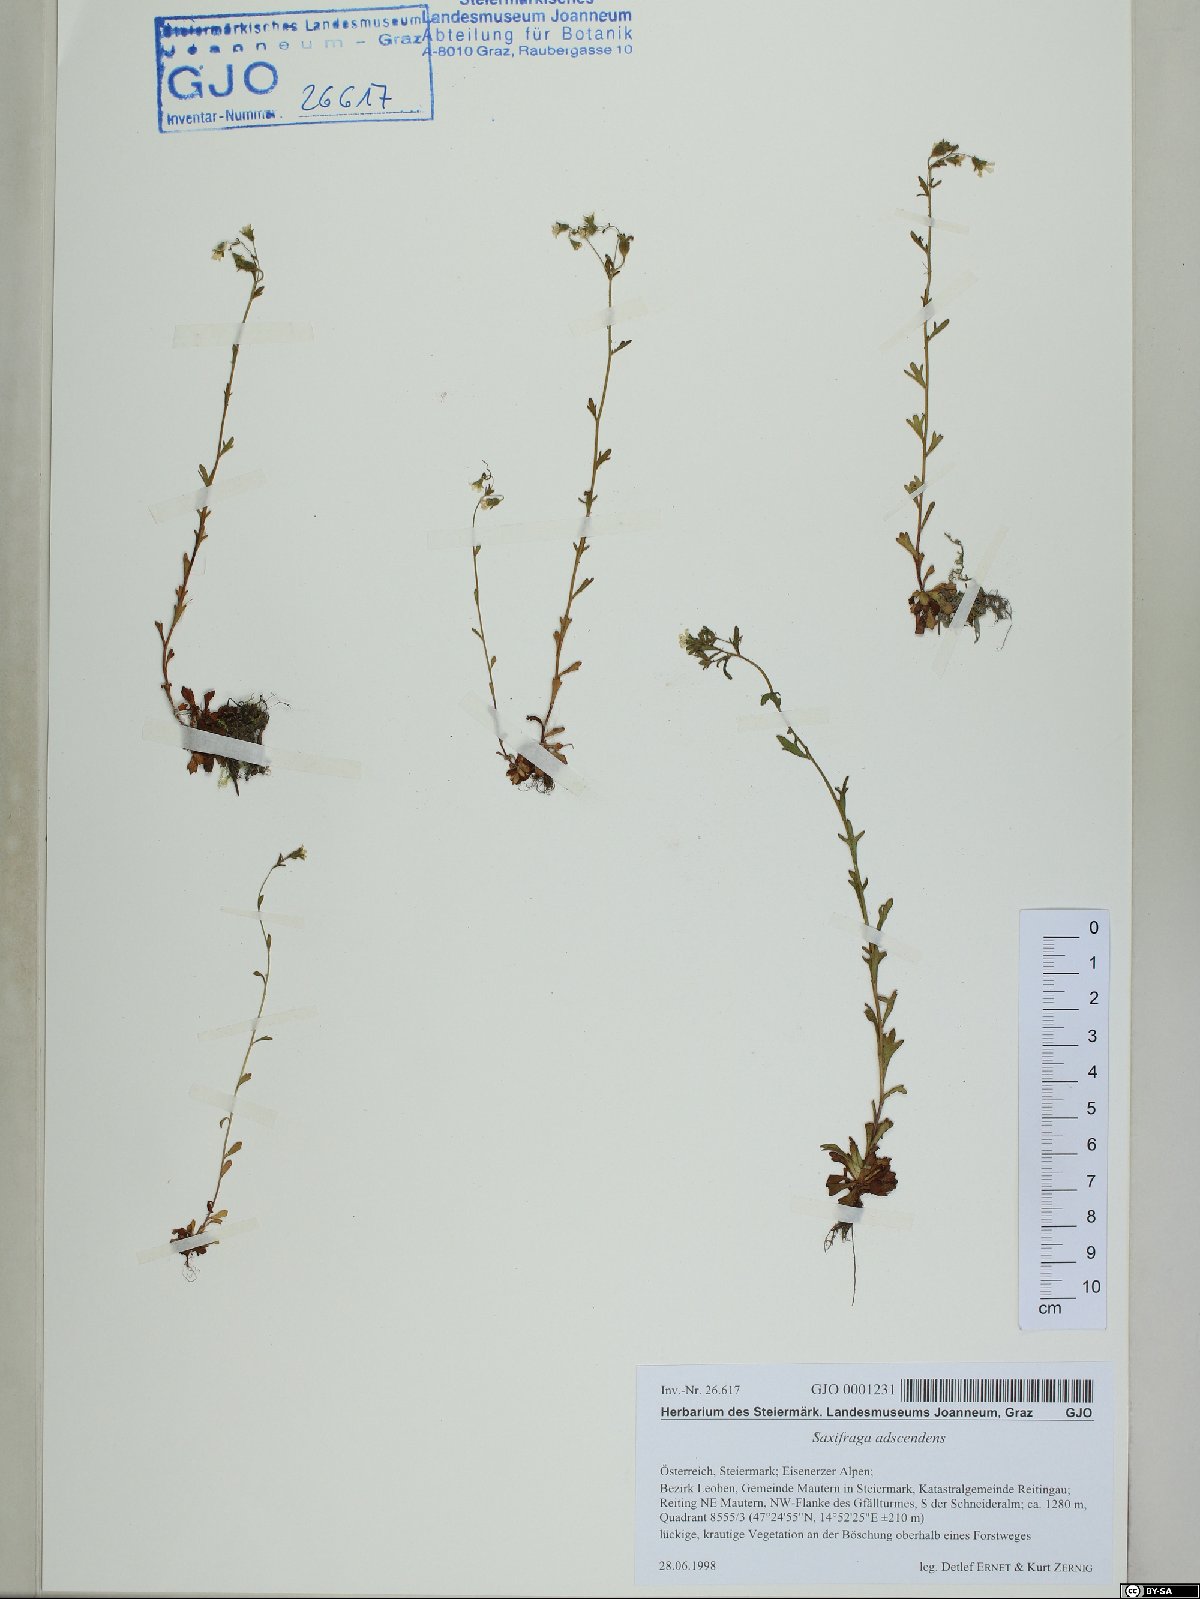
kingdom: Plantae
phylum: Tracheophyta
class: Magnoliopsida
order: Saxifragales
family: Saxifragaceae
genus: Saxifraga
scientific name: Saxifraga adscendens
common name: Ascending saxifrage
